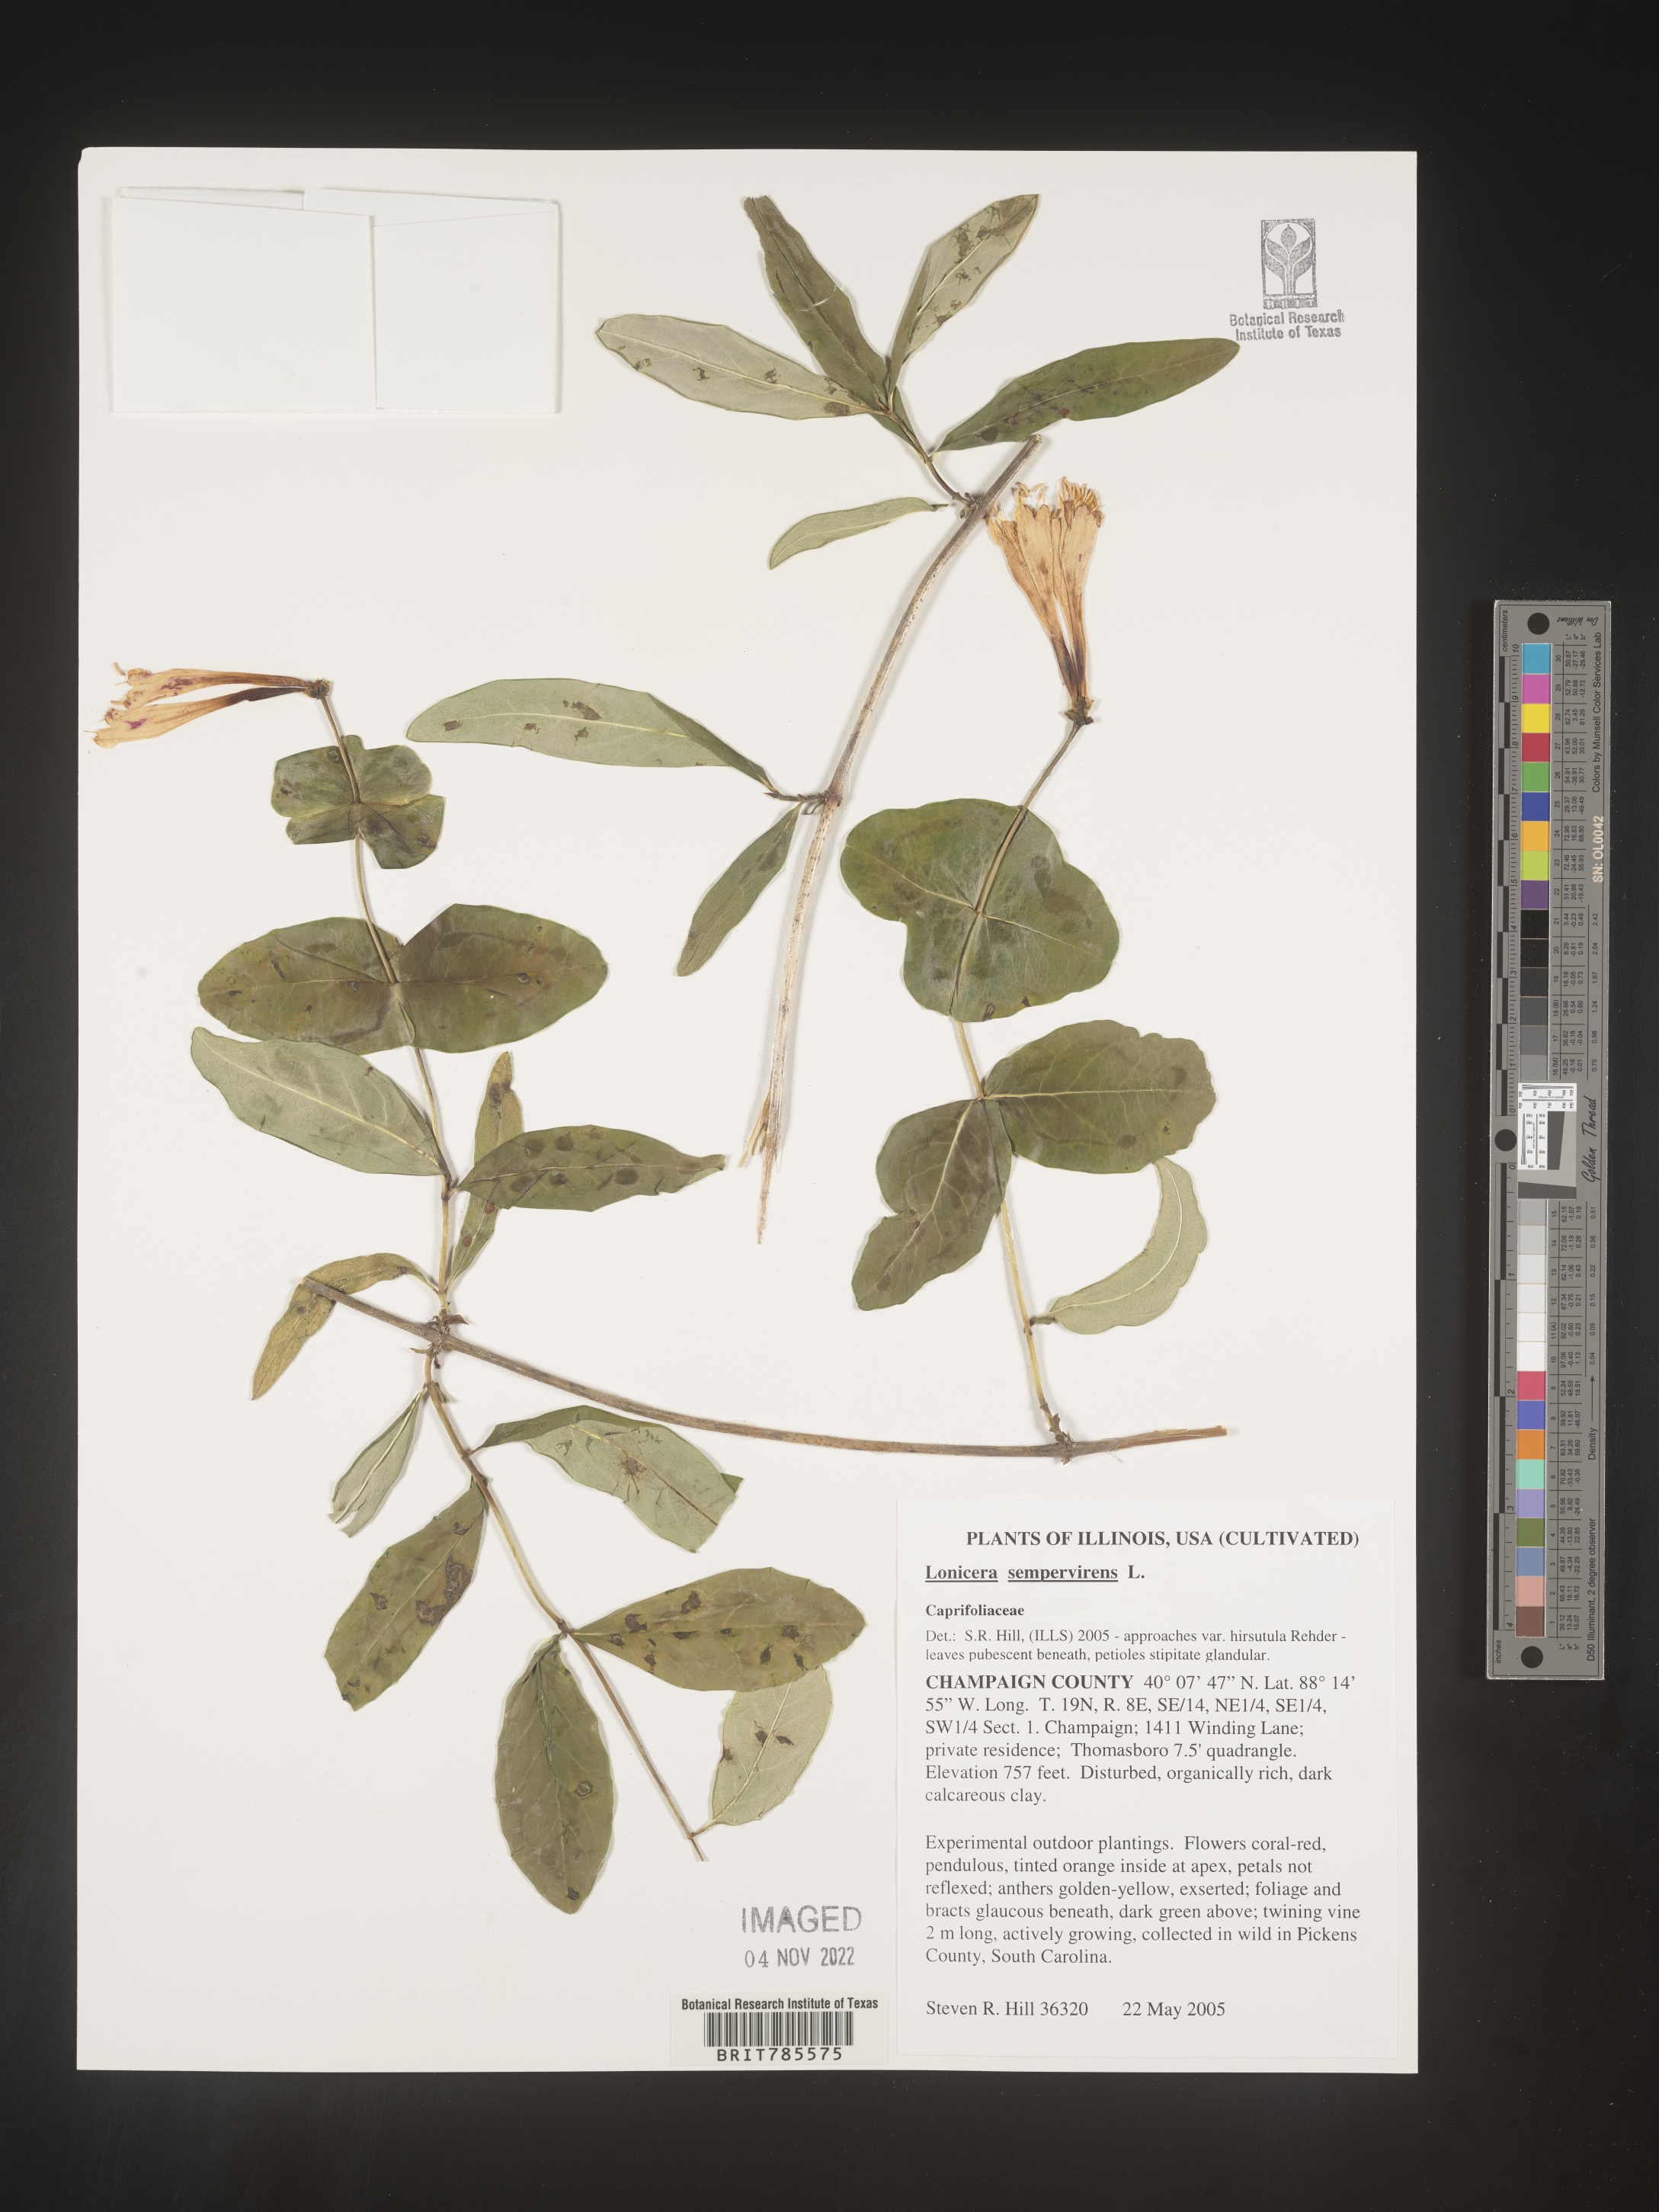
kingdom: Plantae
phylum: Tracheophyta
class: Magnoliopsida
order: Dipsacales
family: Caprifoliaceae
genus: Lonicera
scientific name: Lonicera sempervirens
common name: Coral honeysuckle
